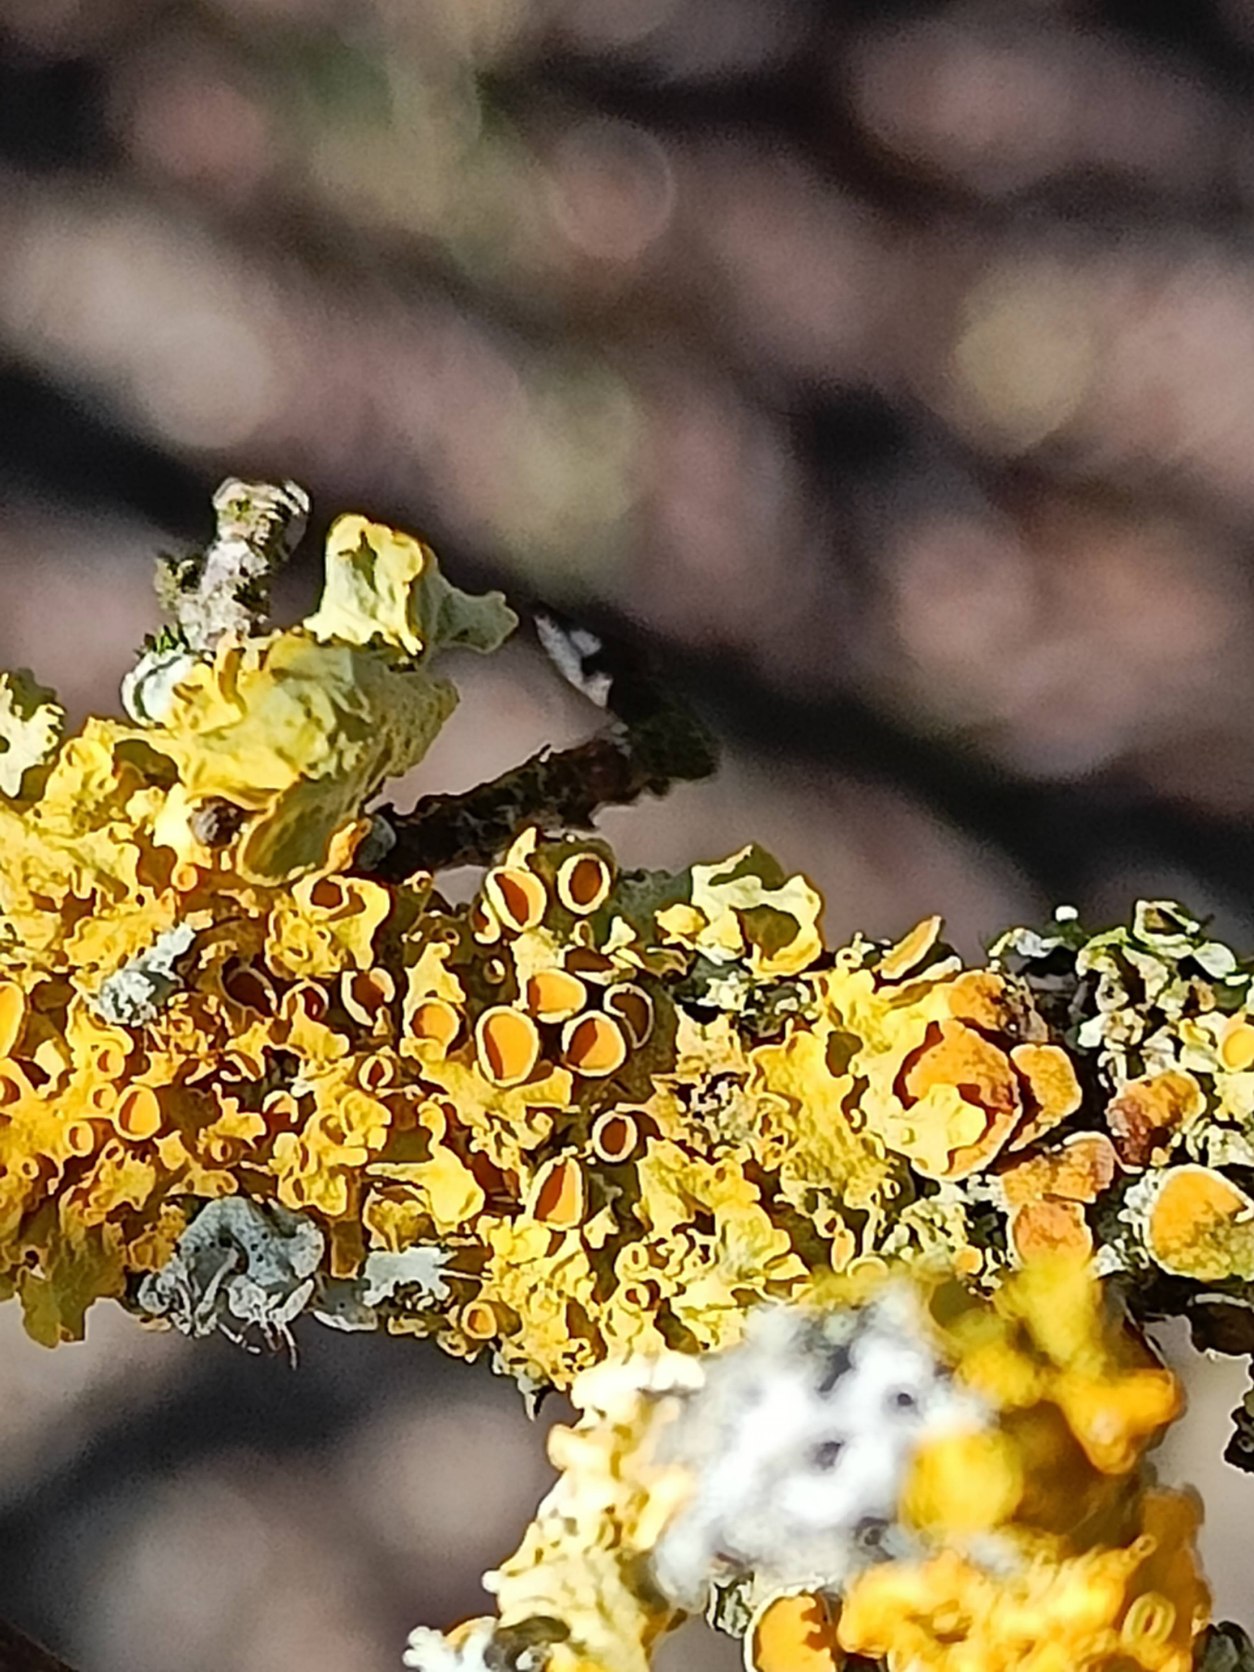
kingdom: Fungi
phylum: Ascomycota
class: Lecanoromycetes
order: Teloschistales
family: Teloschistaceae
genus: Xanthoria
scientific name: Xanthoria parietina
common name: Almindelig væggelav
